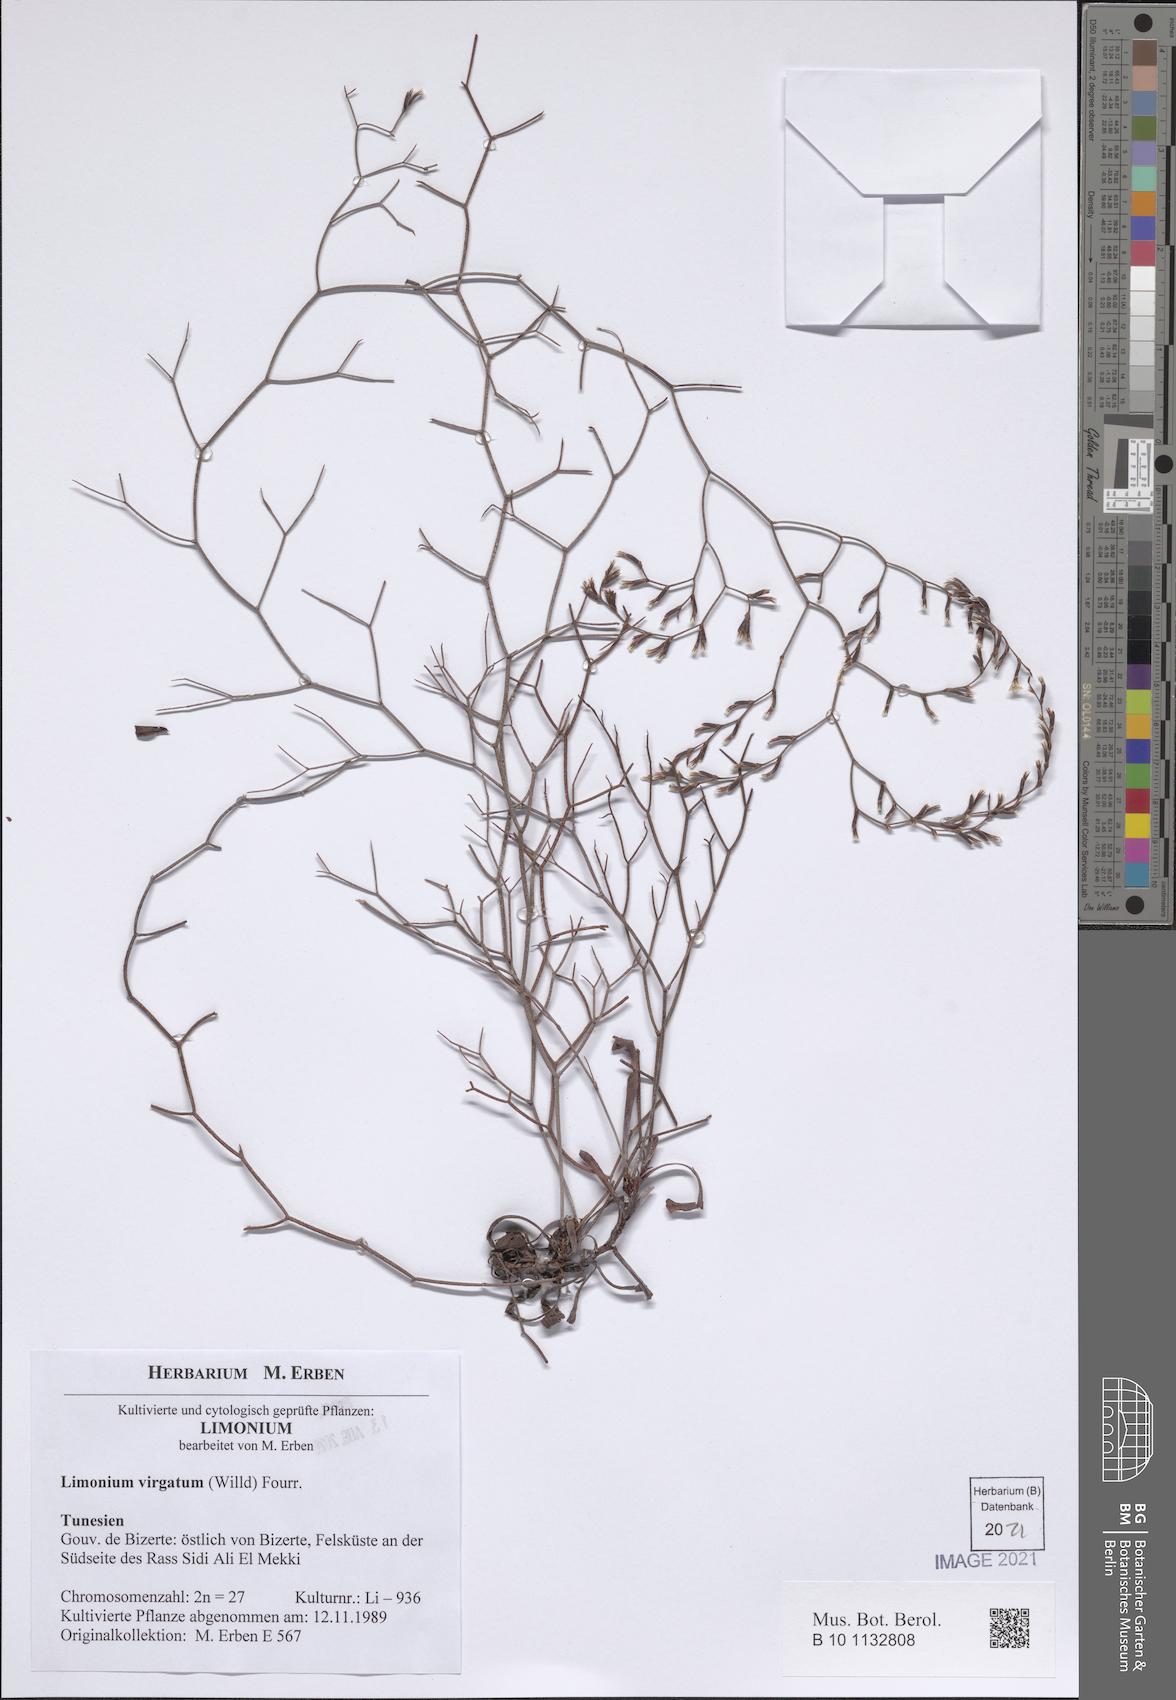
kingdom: Plantae
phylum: Tracheophyta
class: Magnoliopsida
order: Caryophyllales
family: Plumbaginaceae
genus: Limonium
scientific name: Limonium virgatum
